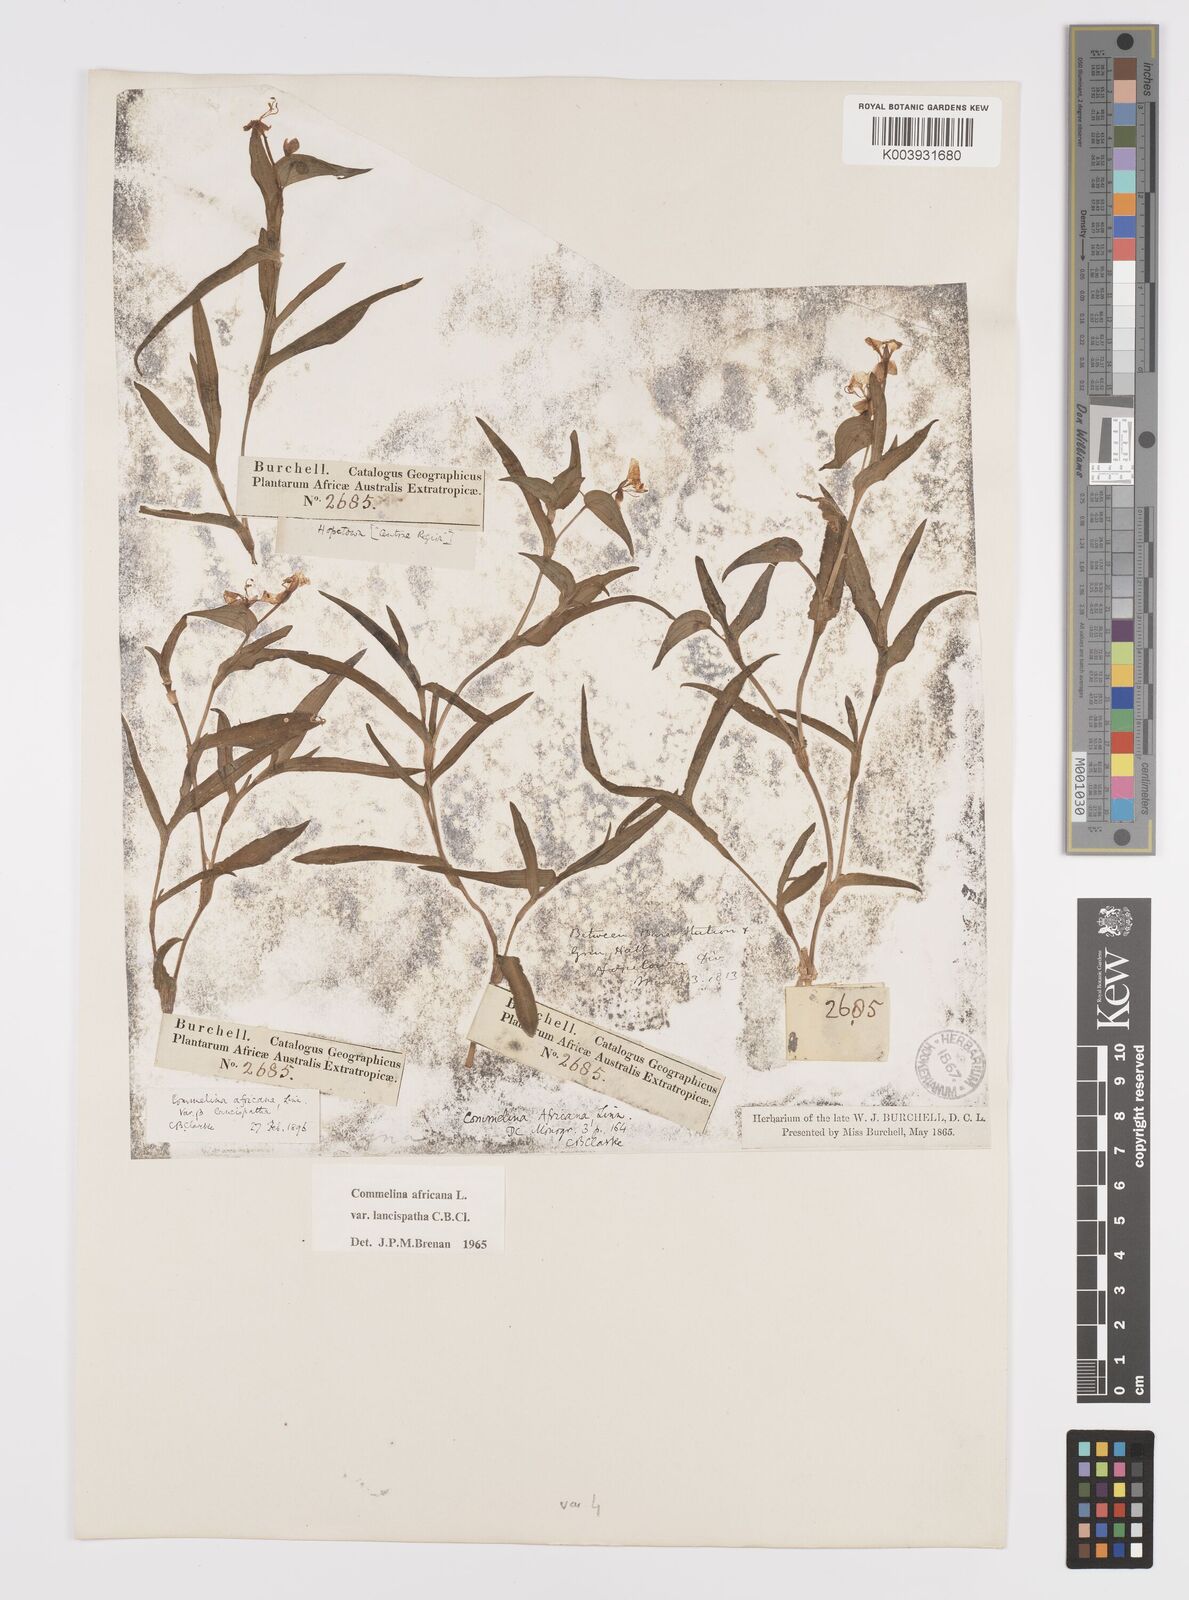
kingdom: Plantae
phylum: Tracheophyta
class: Liliopsida
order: Commelinales
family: Commelinaceae
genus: Commelina
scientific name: Commelina africana
